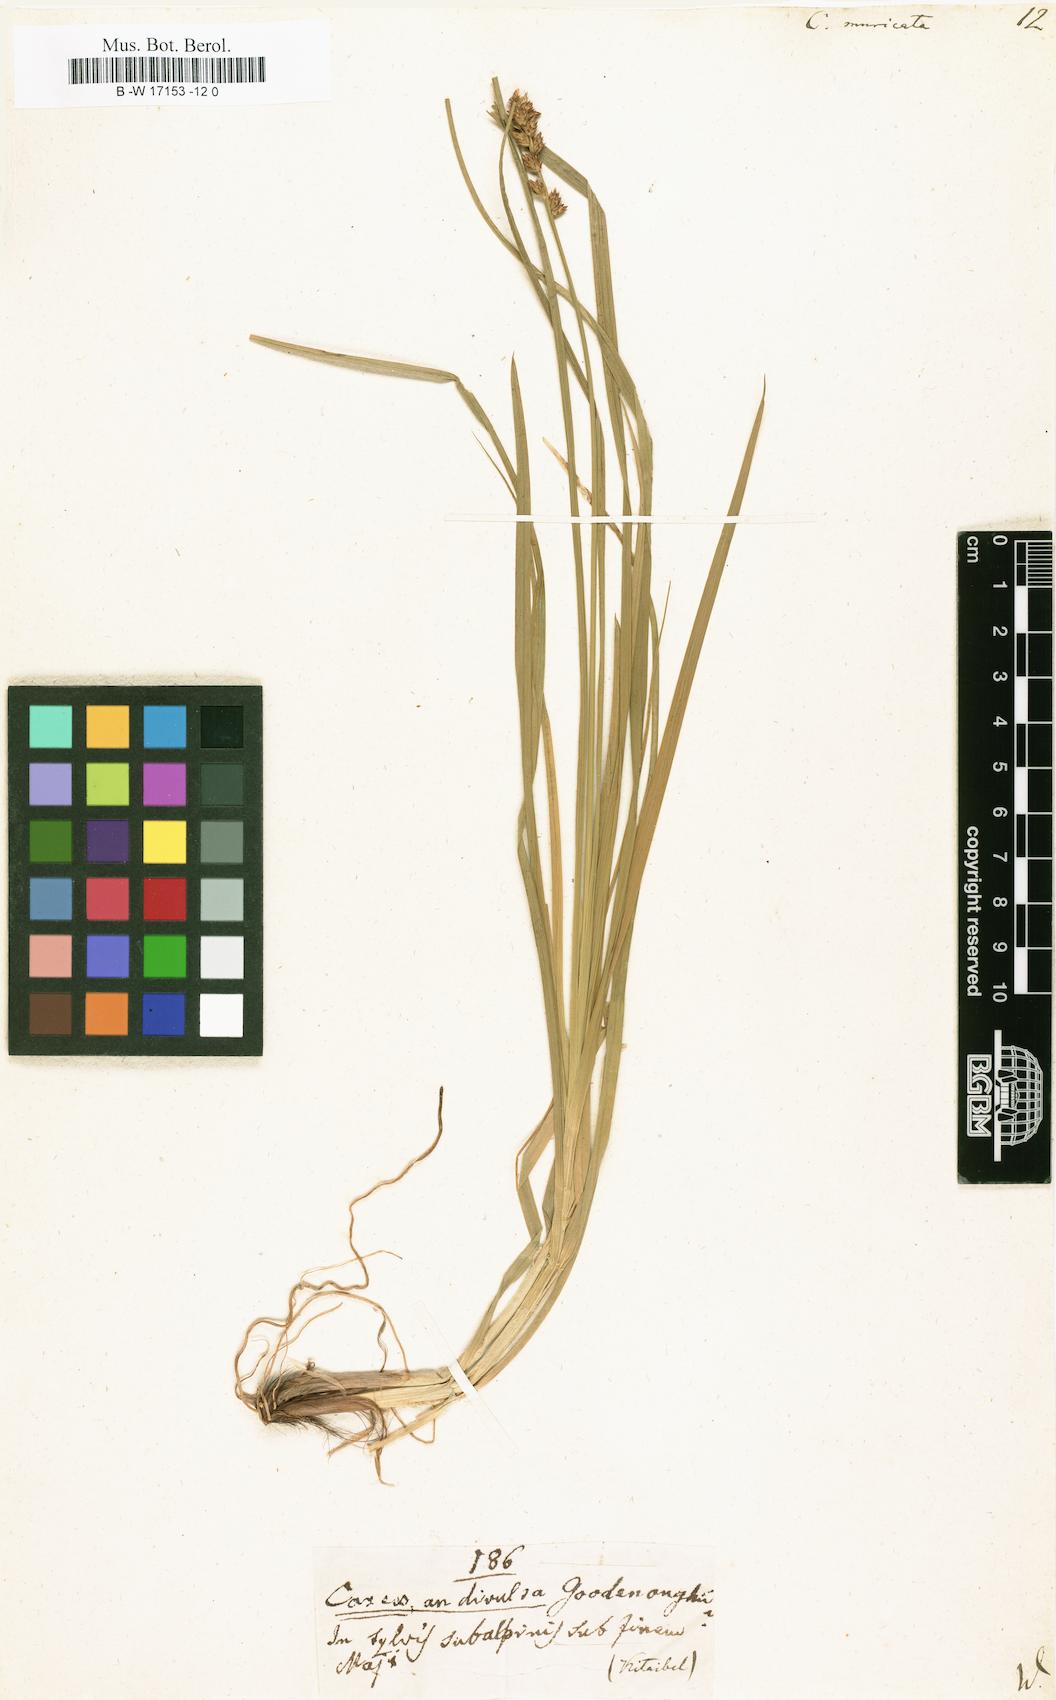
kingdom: Plantae
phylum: Tracheophyta
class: Liliopsida
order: Poales
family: Cyperaceae
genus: Carex
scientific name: Carex muricata
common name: Rough sedge
